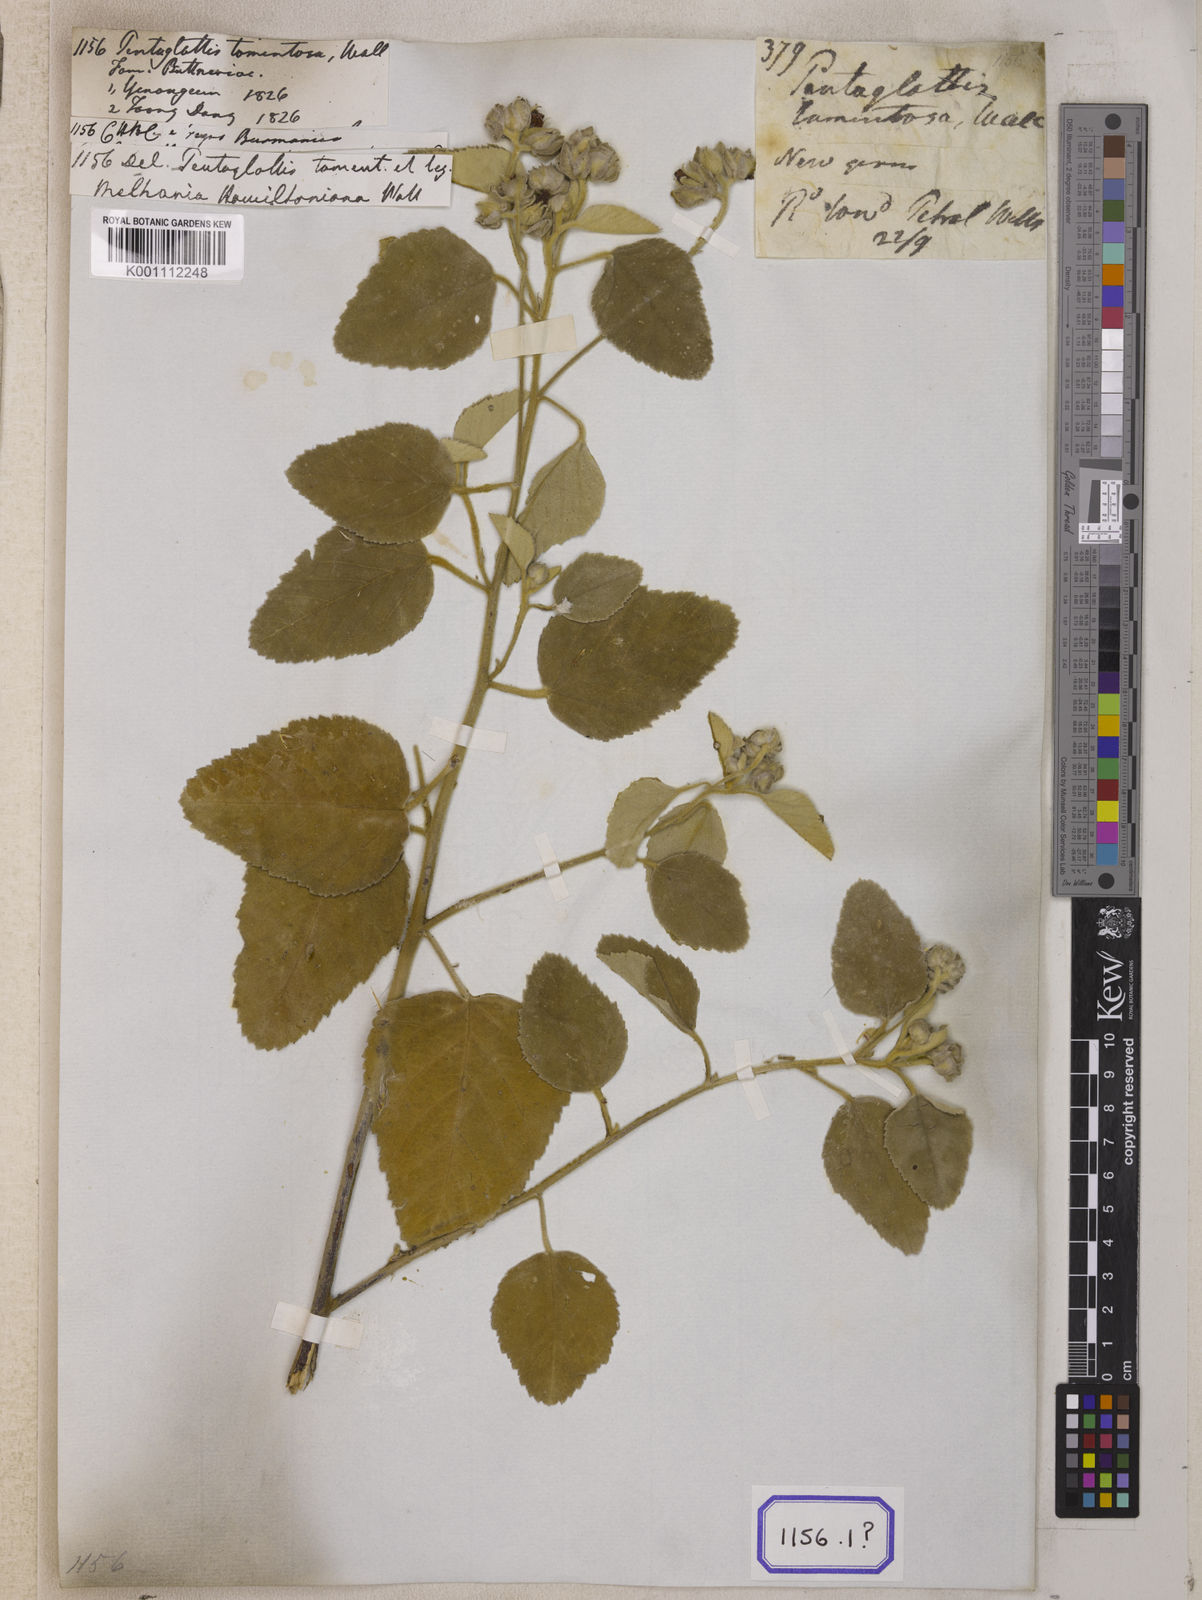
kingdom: Plantae
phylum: Tracheophyta
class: Magnoliopsida
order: Malvales
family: Malvaceae
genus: Melhania
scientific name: Melhania hamiltoniana
